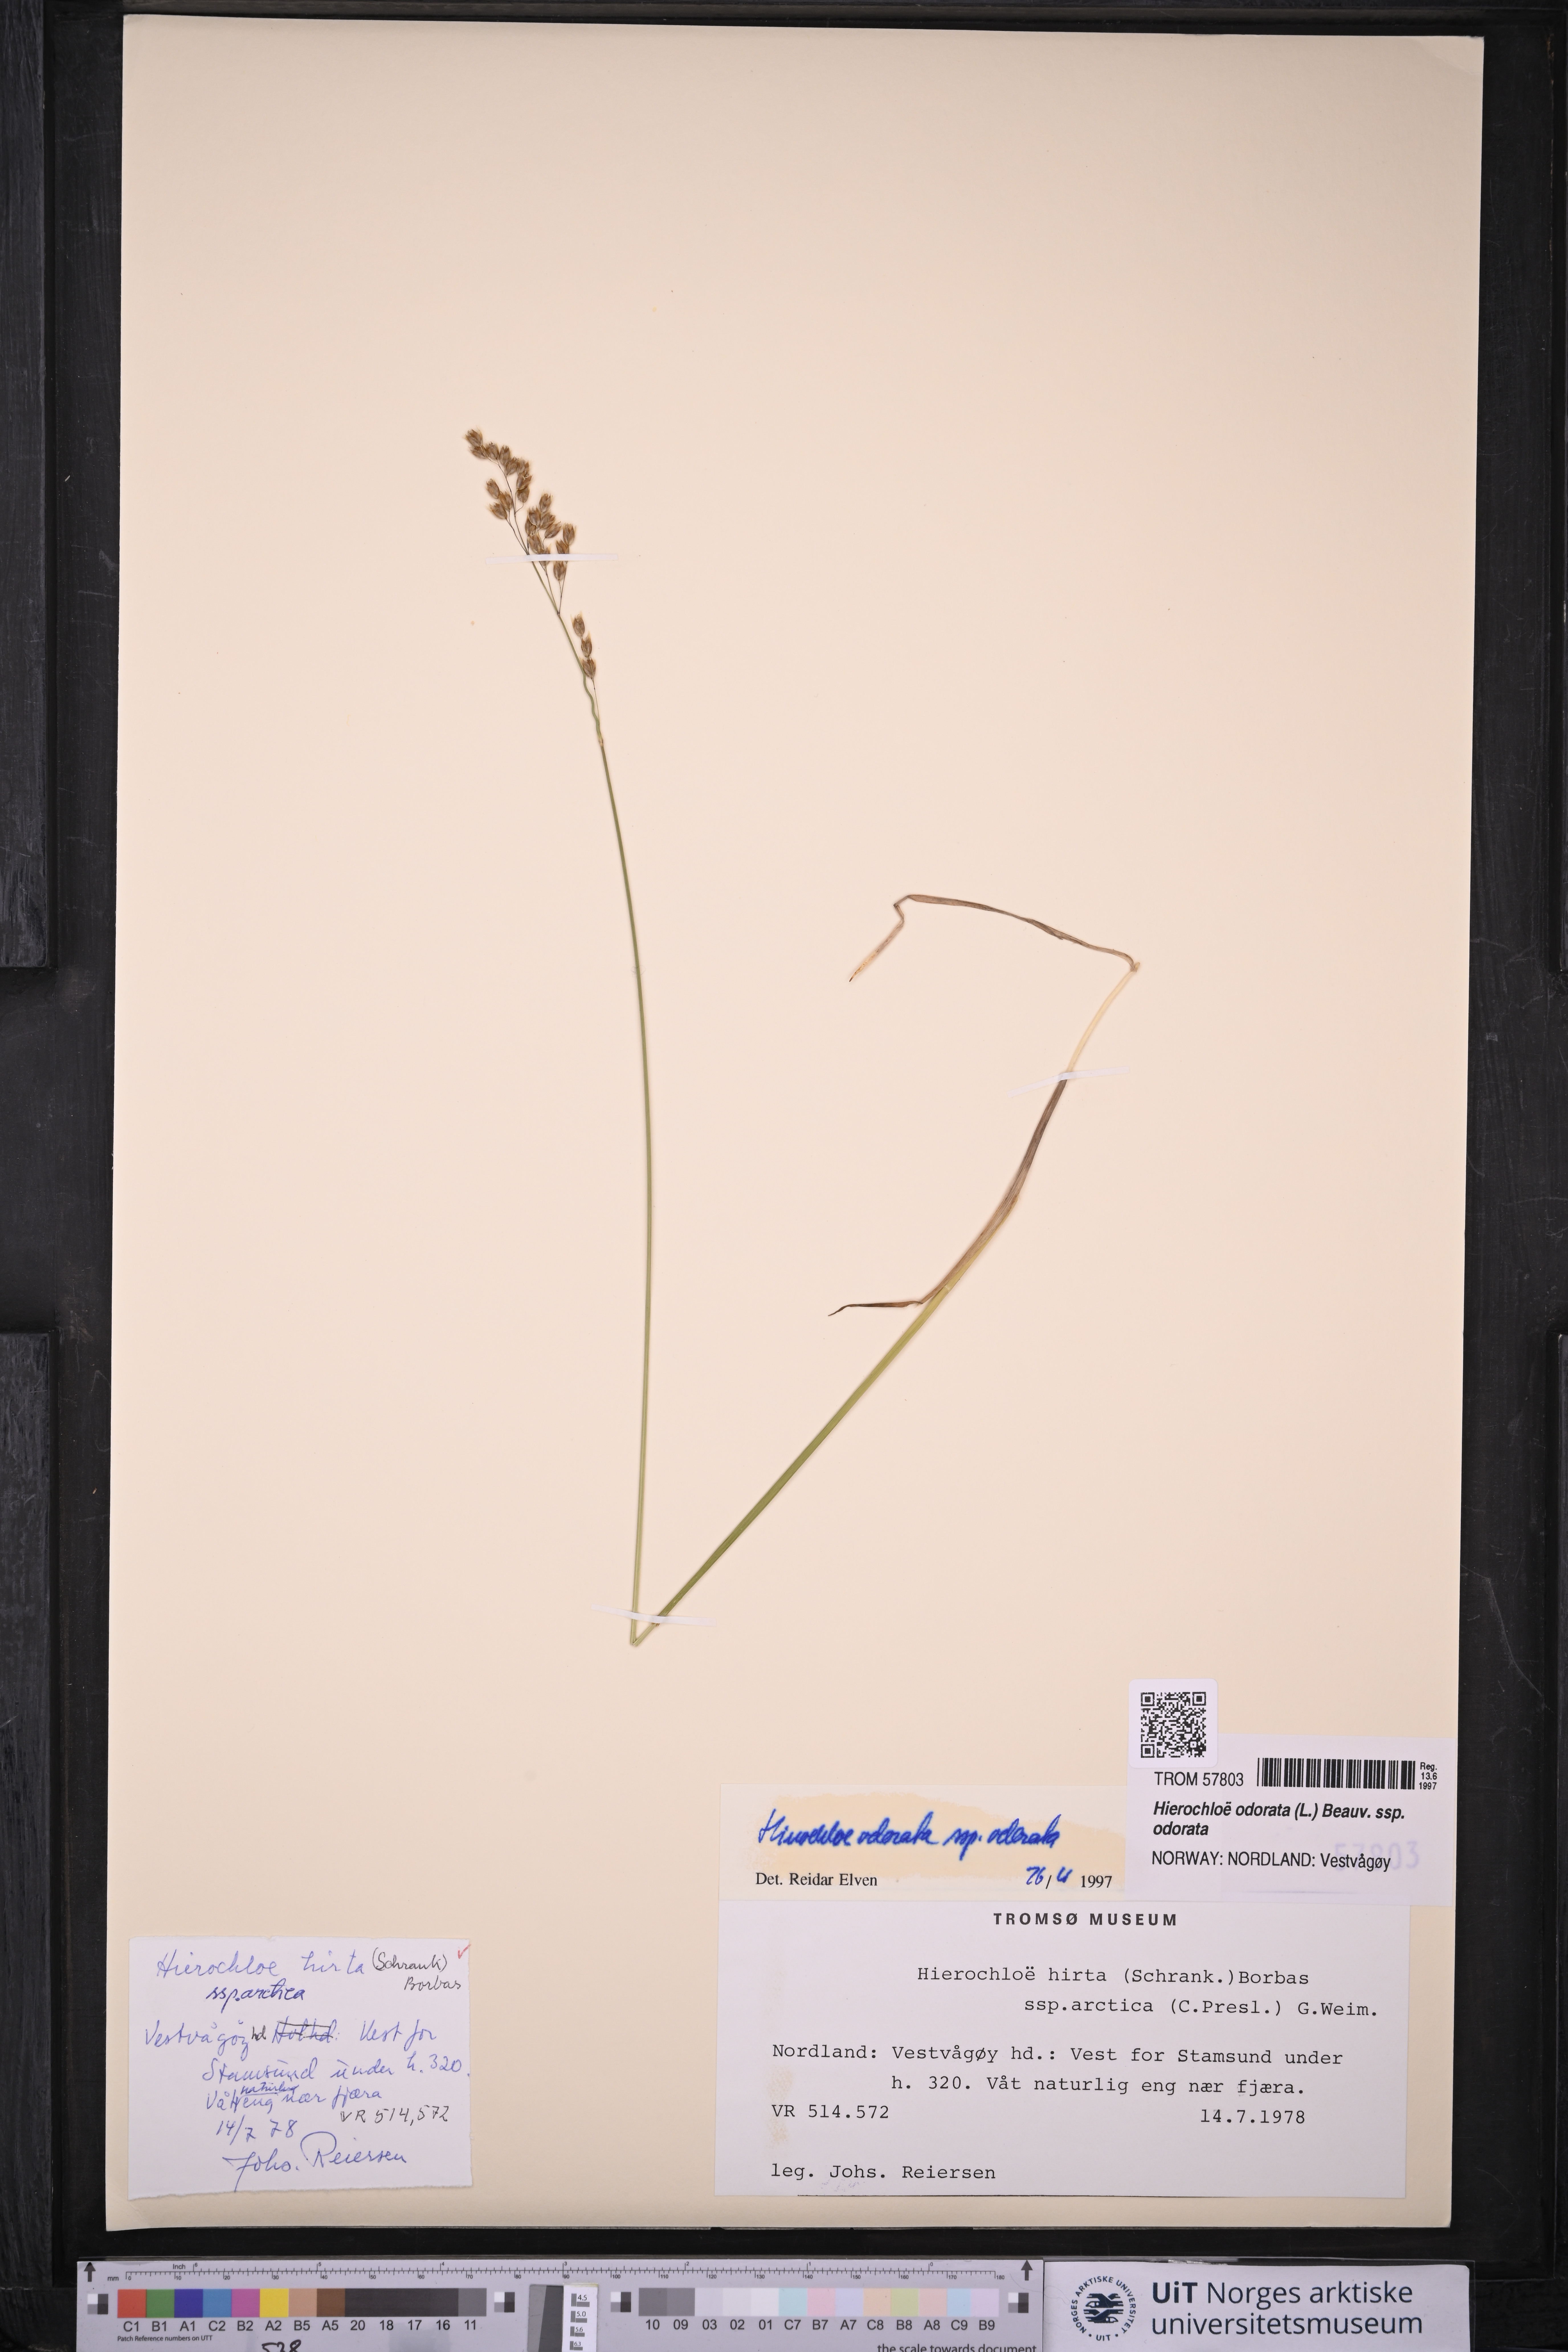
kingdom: Plantae
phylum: Tracheophyta
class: Liliopsida
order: Poales
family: Poaceae
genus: Anthoxanthum
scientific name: Anthoxanthum nitens
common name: Holy grass
